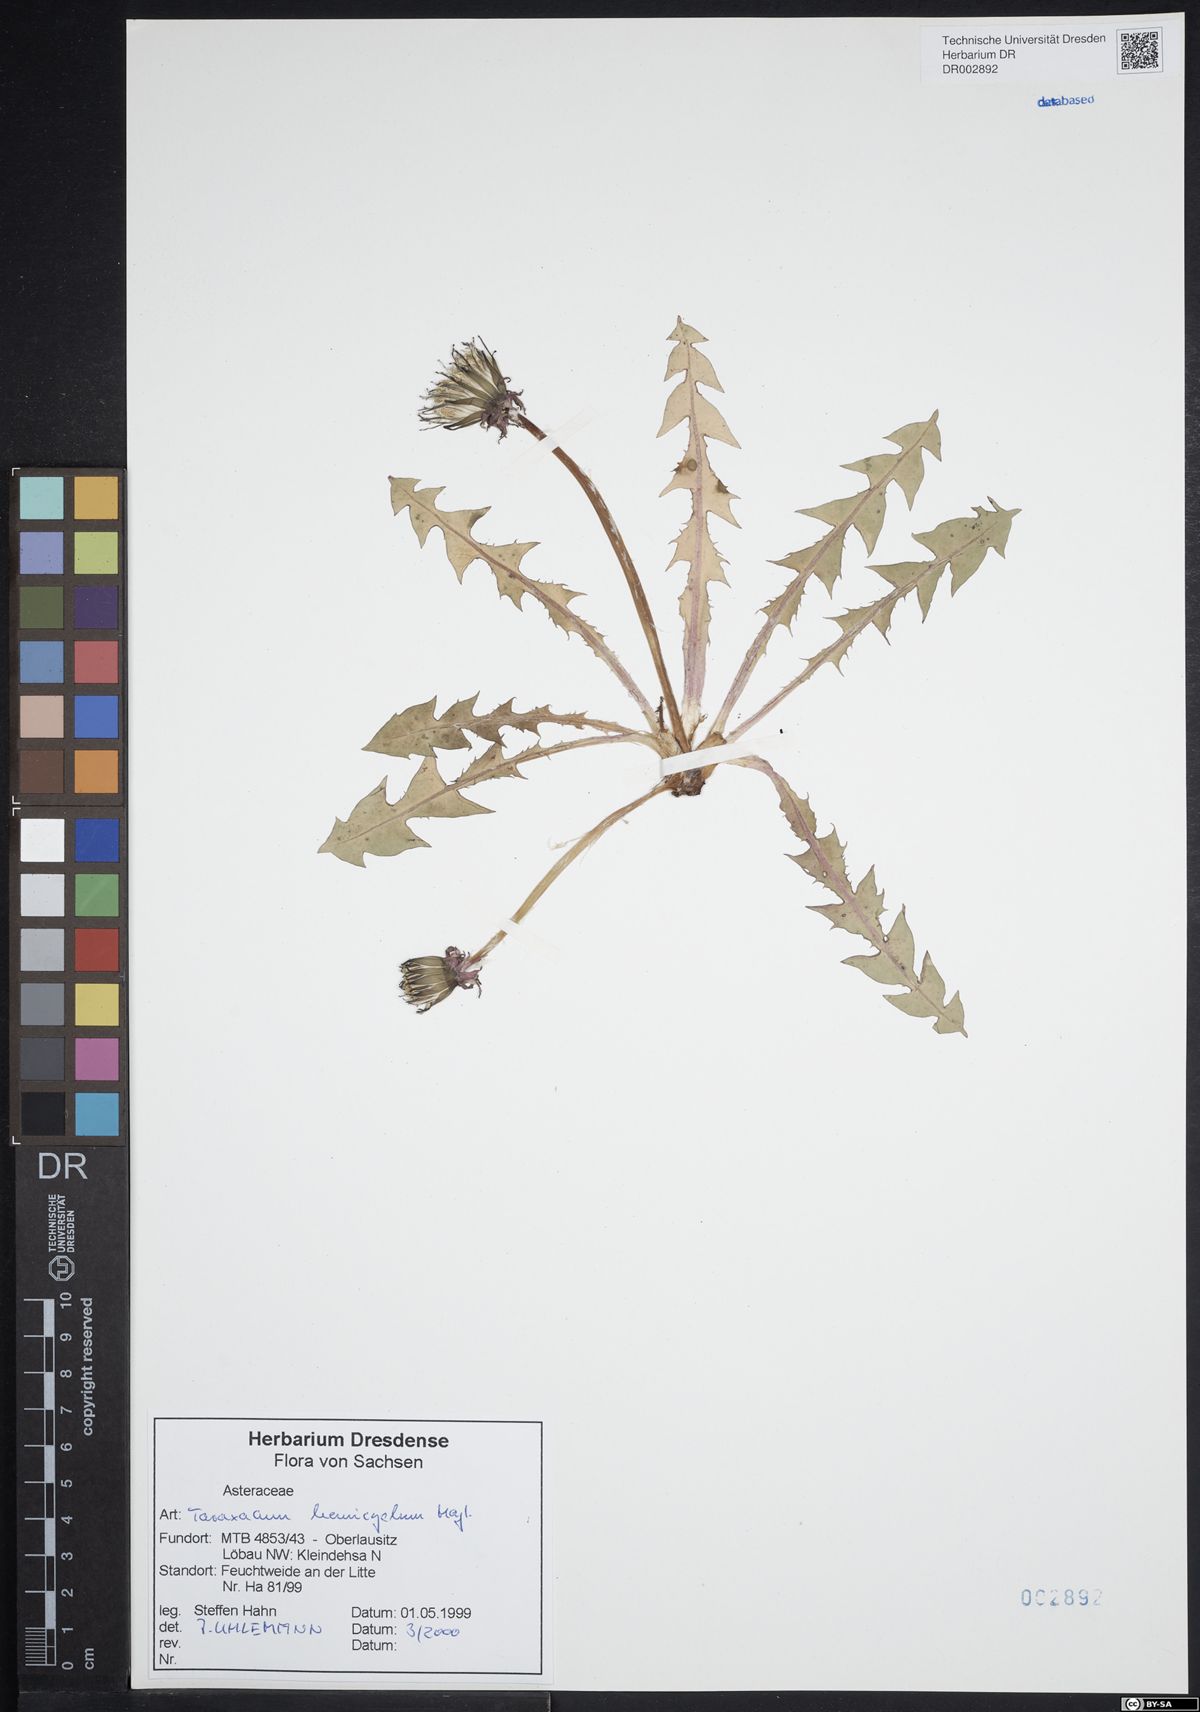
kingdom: Plantae
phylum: Tracheophyta
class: Magnoliopsida
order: Asterales
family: Asteraceae
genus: Taraxacum
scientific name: Taraxacum adiantifrons
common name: Pretty-leaved dandelion
